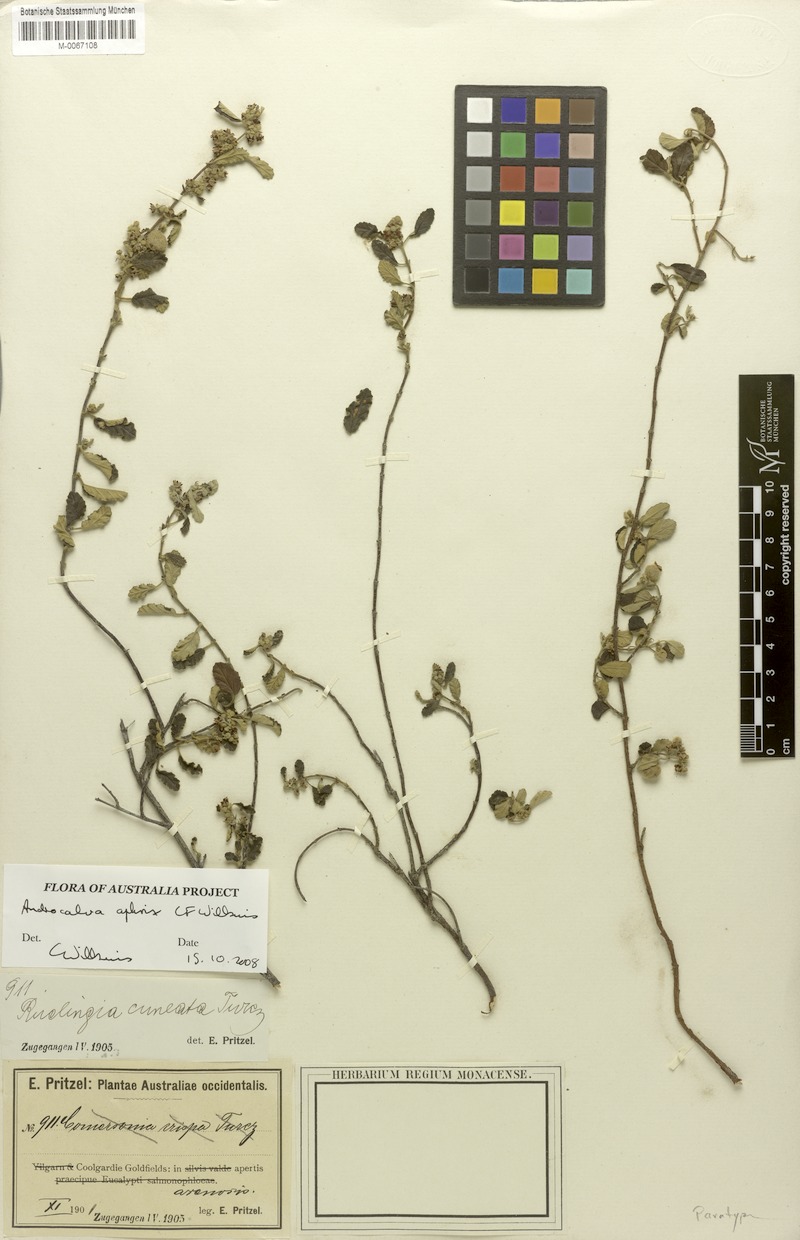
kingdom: Plantae
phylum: Tracheophyta
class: Magnoliopsida
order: Malvales
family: Malvaceae
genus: Androcalva
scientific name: Androcalva aphrix
